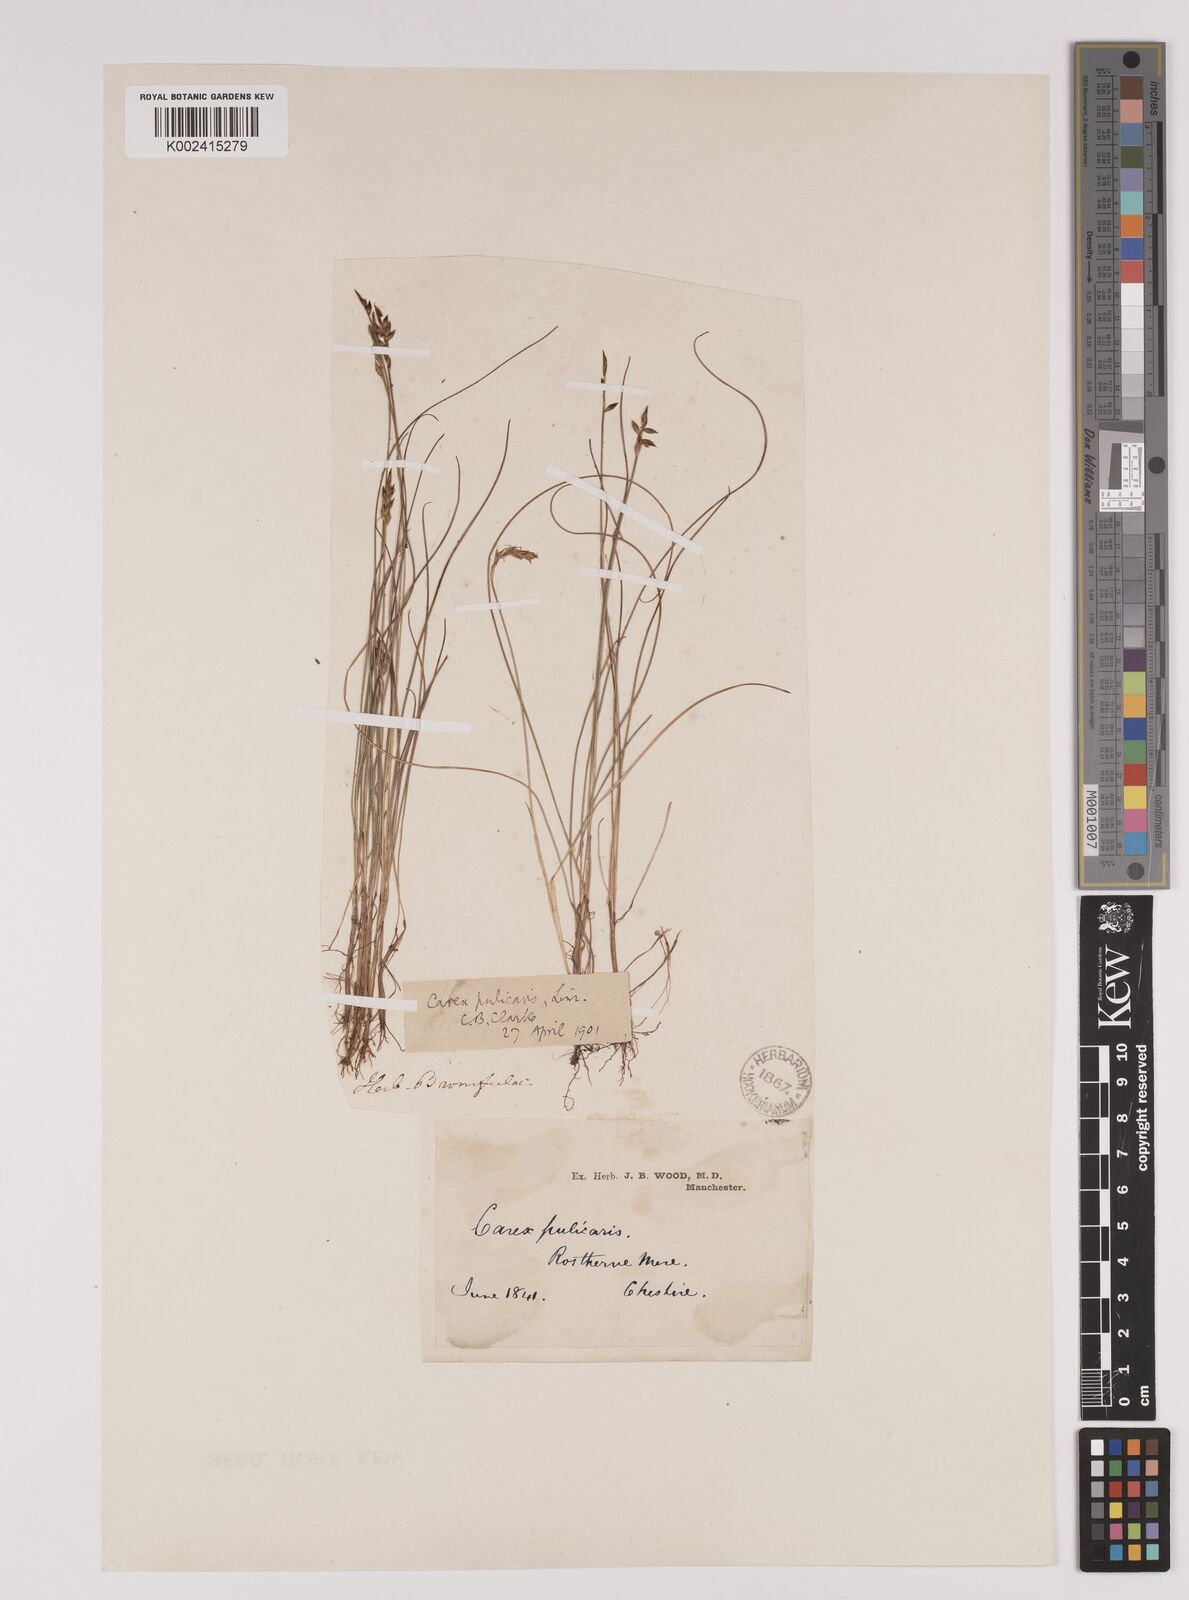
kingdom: Plantae
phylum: Tracheophyta
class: Liliopsida
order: Poales
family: Cyperaceae
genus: Carex
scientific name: Carex pulicaris
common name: Flea sedge
